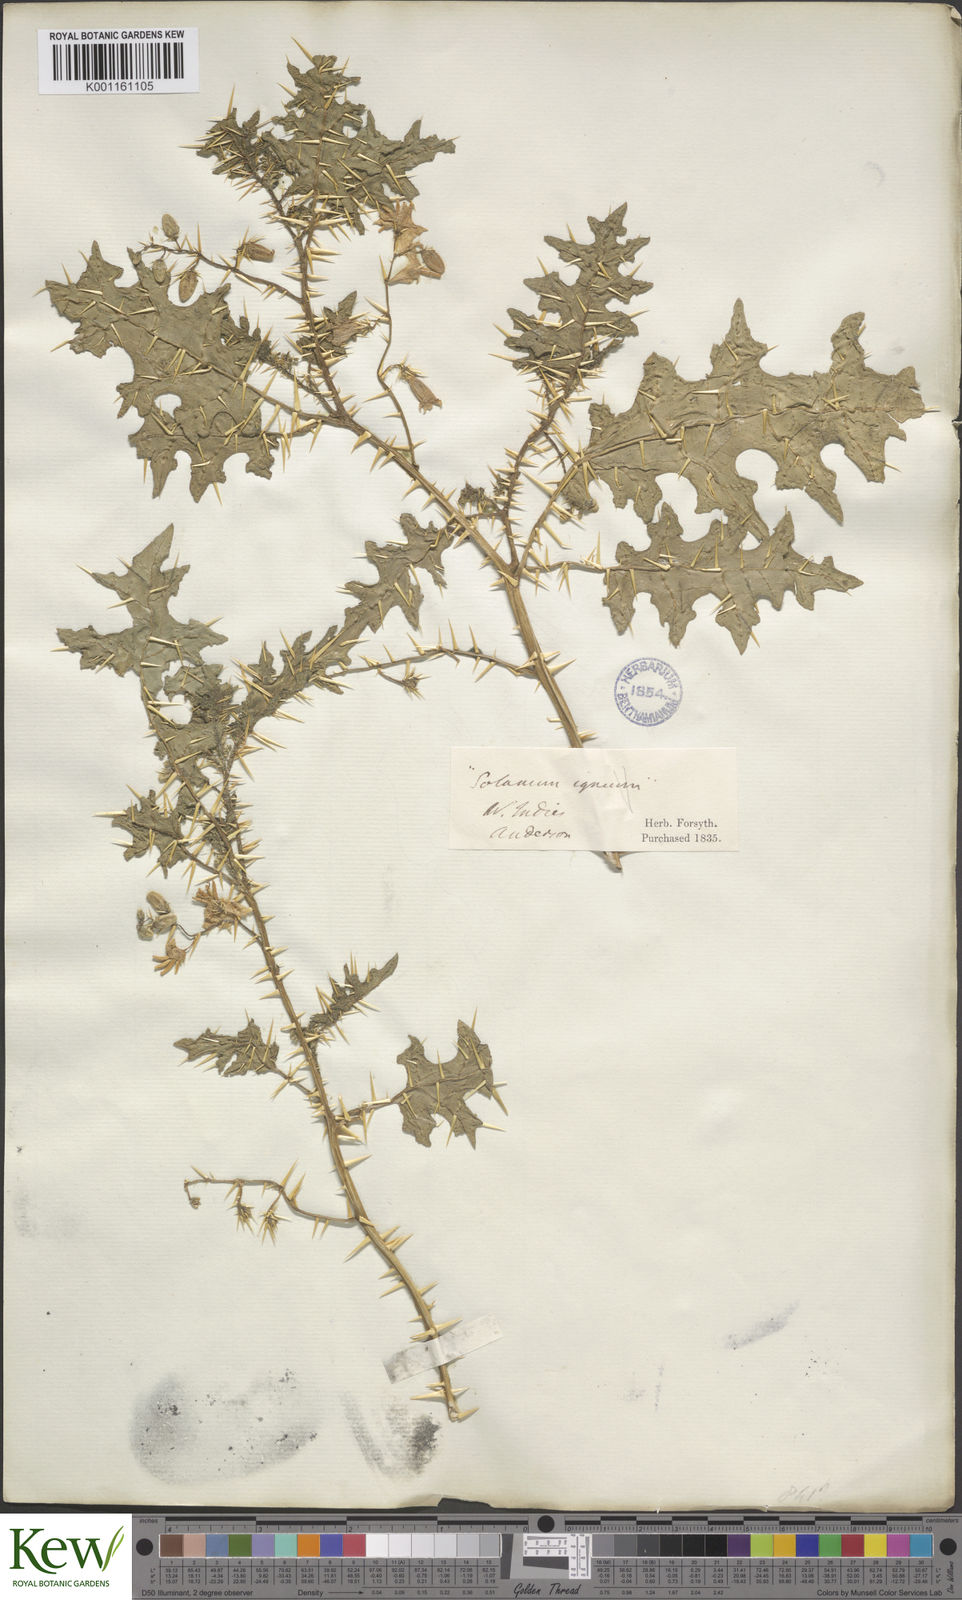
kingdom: Plantae
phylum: Tracheophyta
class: Magnoliopsida
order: Solanales
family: Solanaceae
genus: Solanum
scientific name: Solanum aculeatissimum
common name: Dutch eggplant
